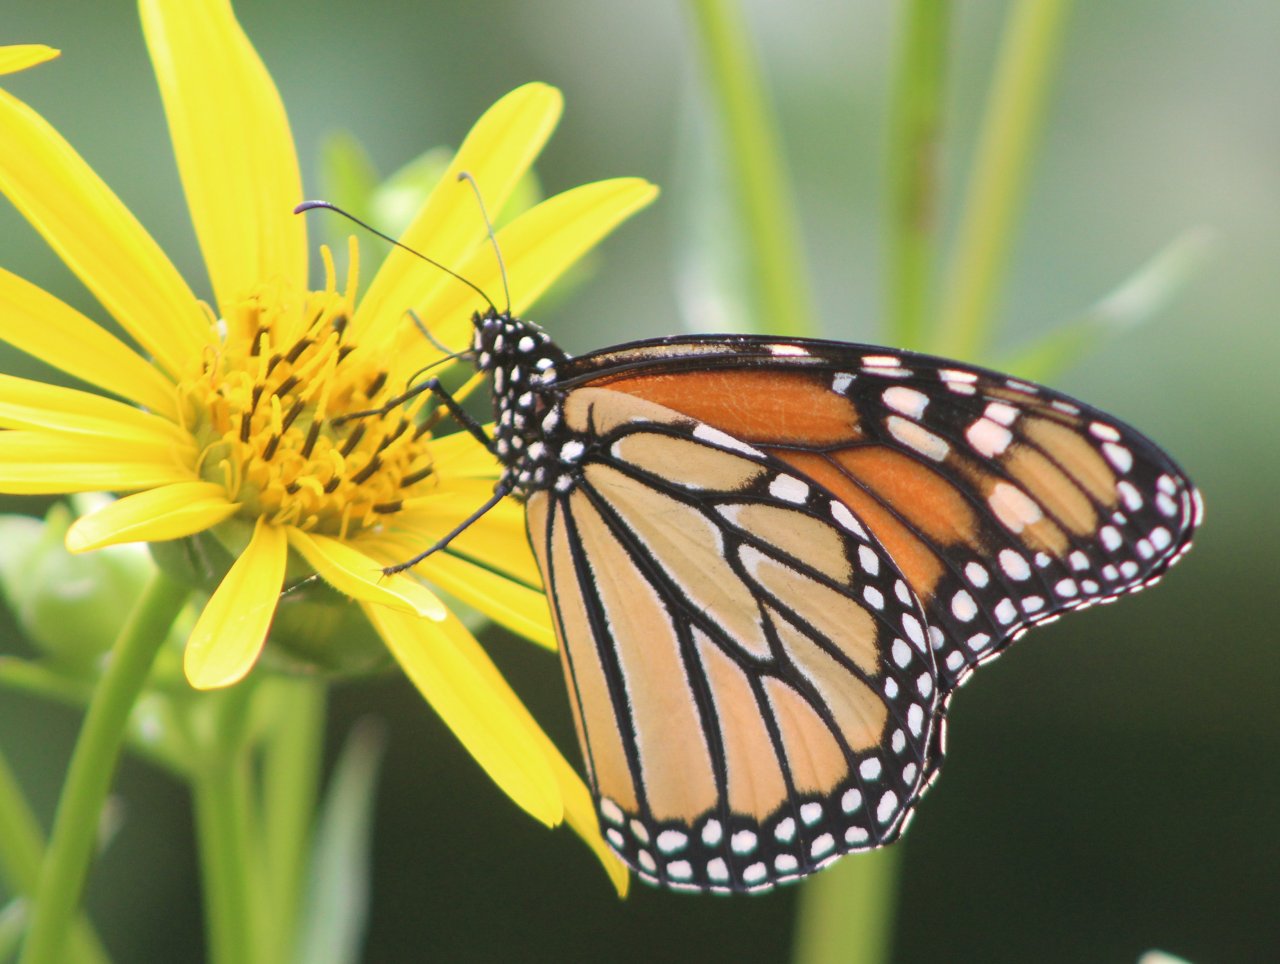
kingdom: Animalia
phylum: Arthropoda
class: Insecta
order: Lepidoptera
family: Nymphalidae
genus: Danaus
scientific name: Danaus plexippus
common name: Monarch
